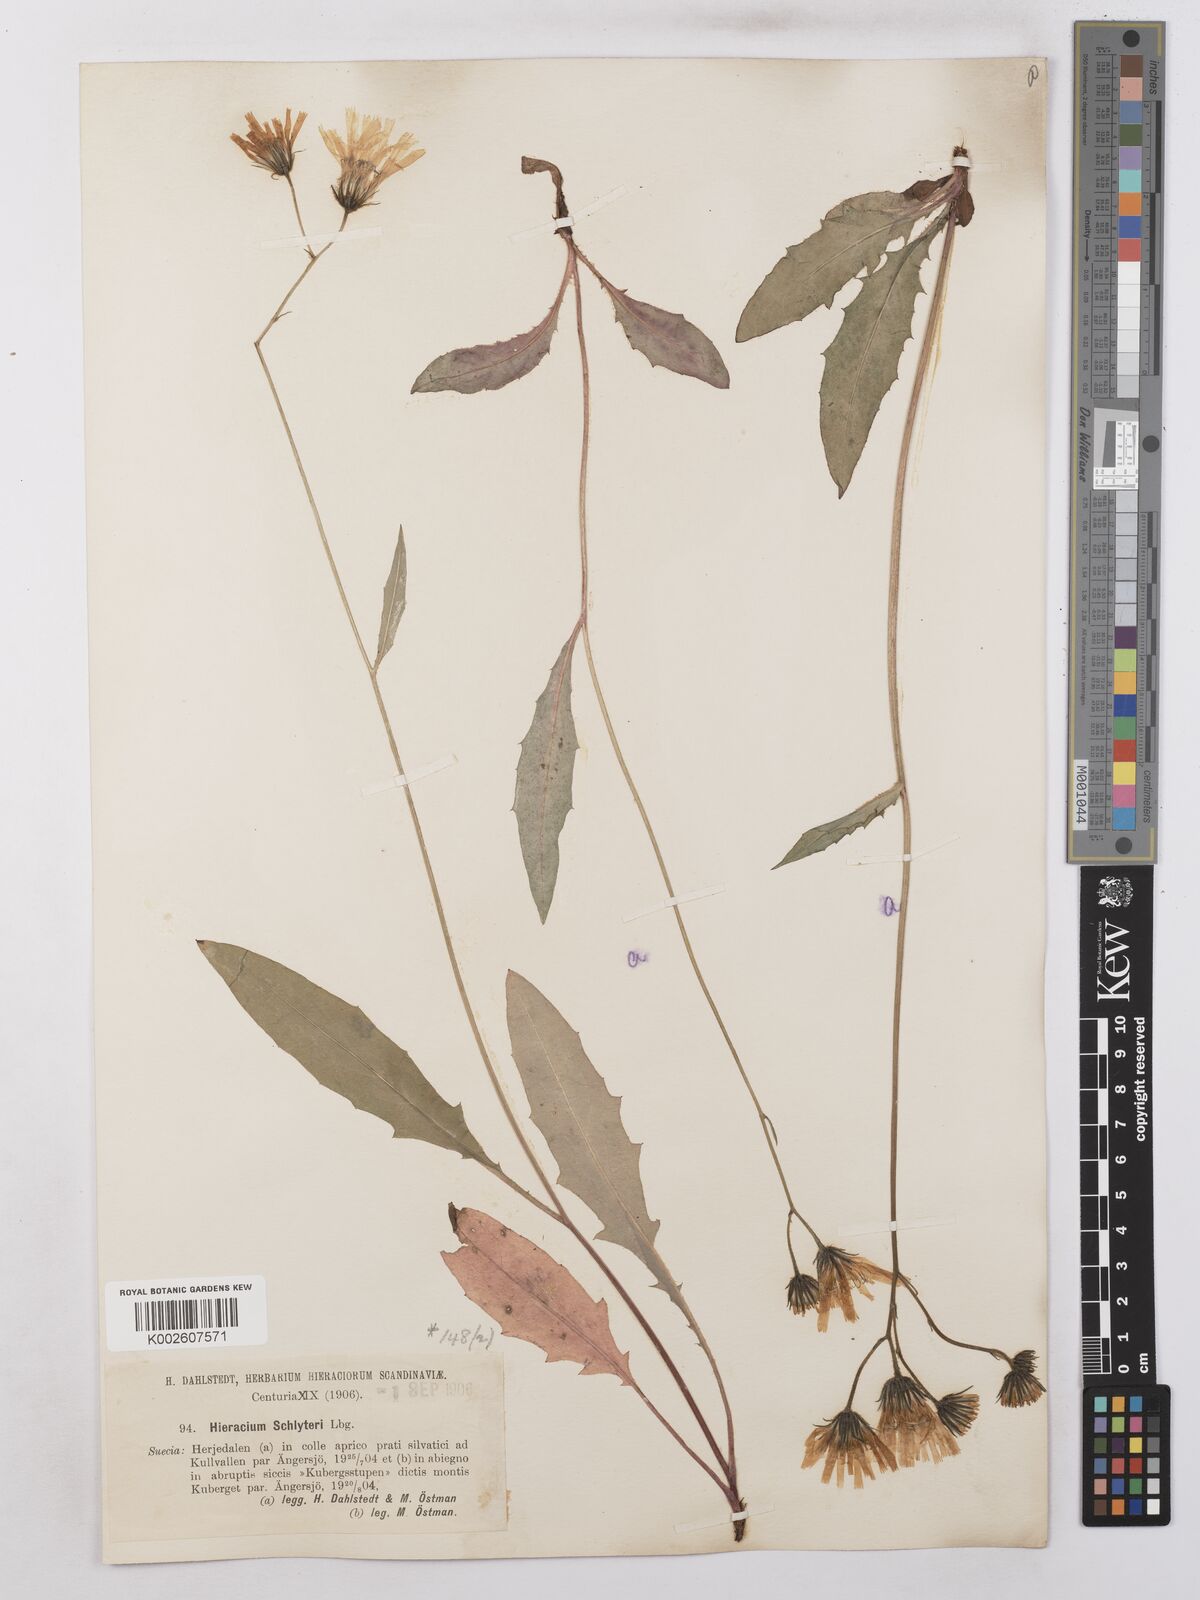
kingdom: Plantae
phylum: Tracheophyta
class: Magnoliopsida
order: Asterales
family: Asteraceae
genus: Hieracium
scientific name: Hieracium subramosum
